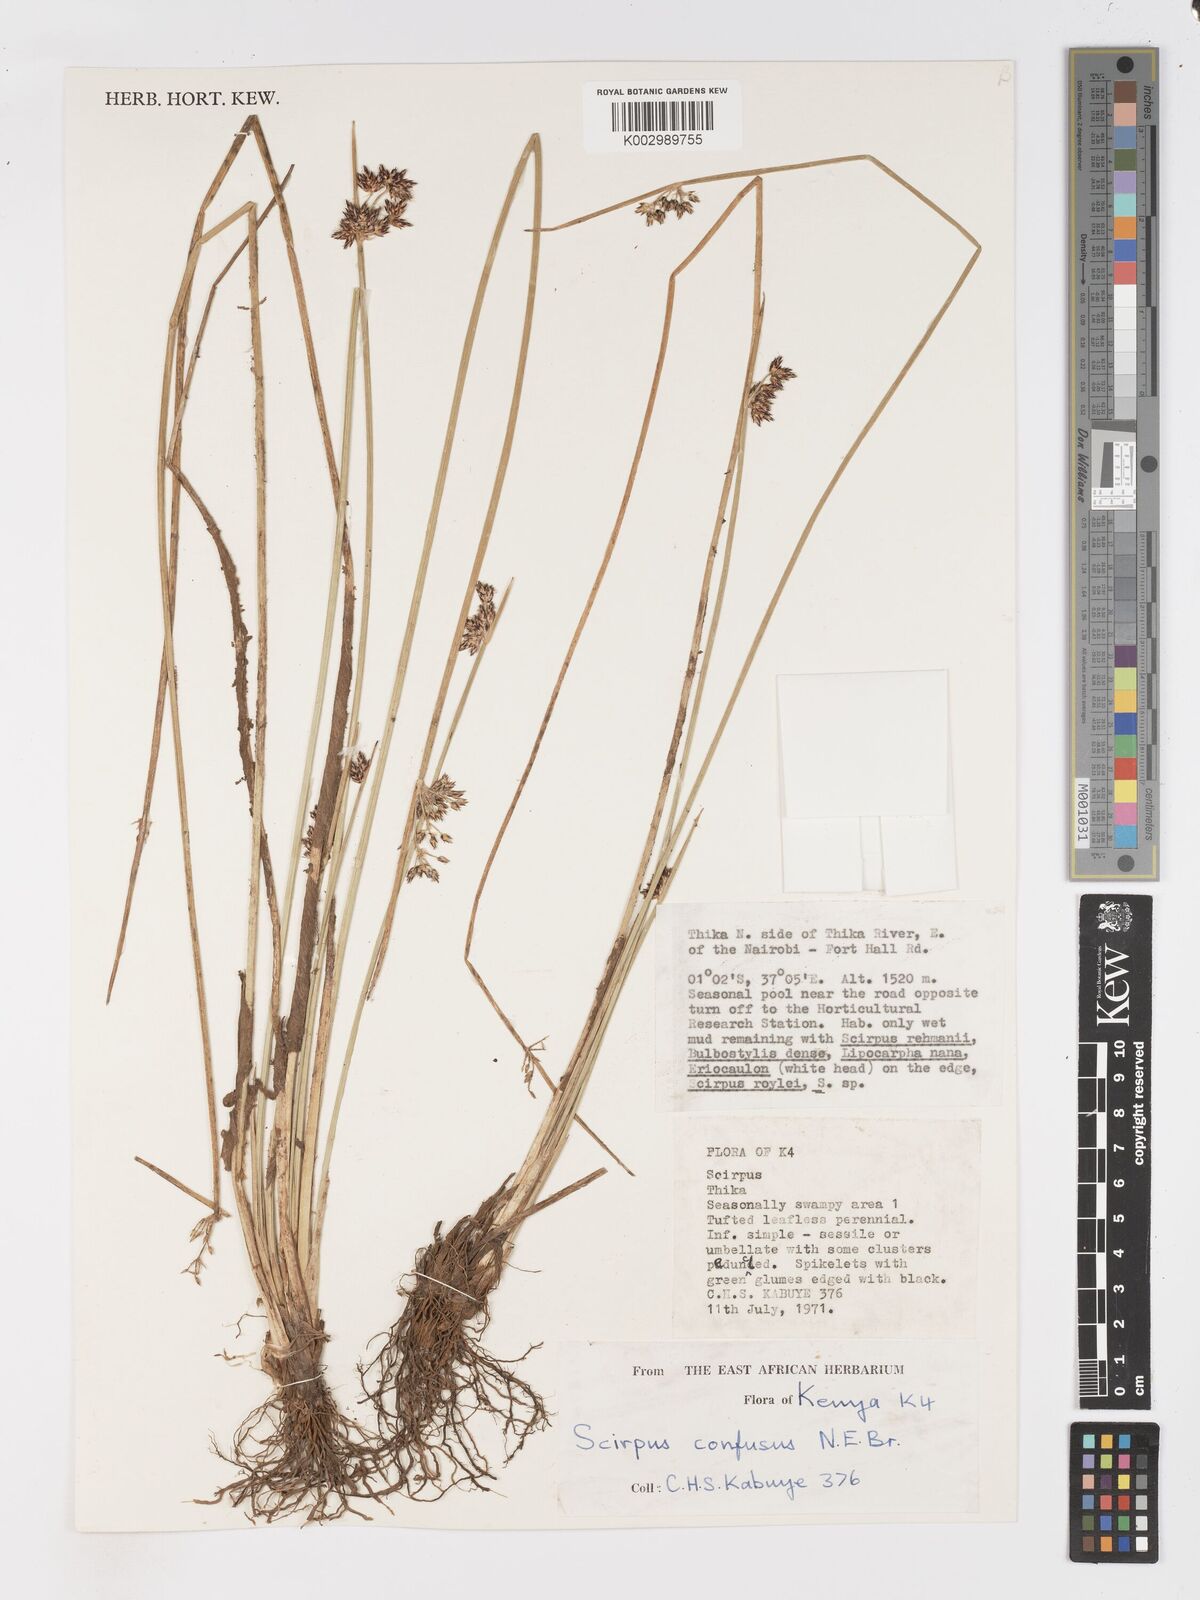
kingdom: Plantae
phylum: Tracheophyta
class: Liliopsida
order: Poales
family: Cyperaceae
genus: Schoenoplectiella
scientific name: Schoenoplectiella confusa
